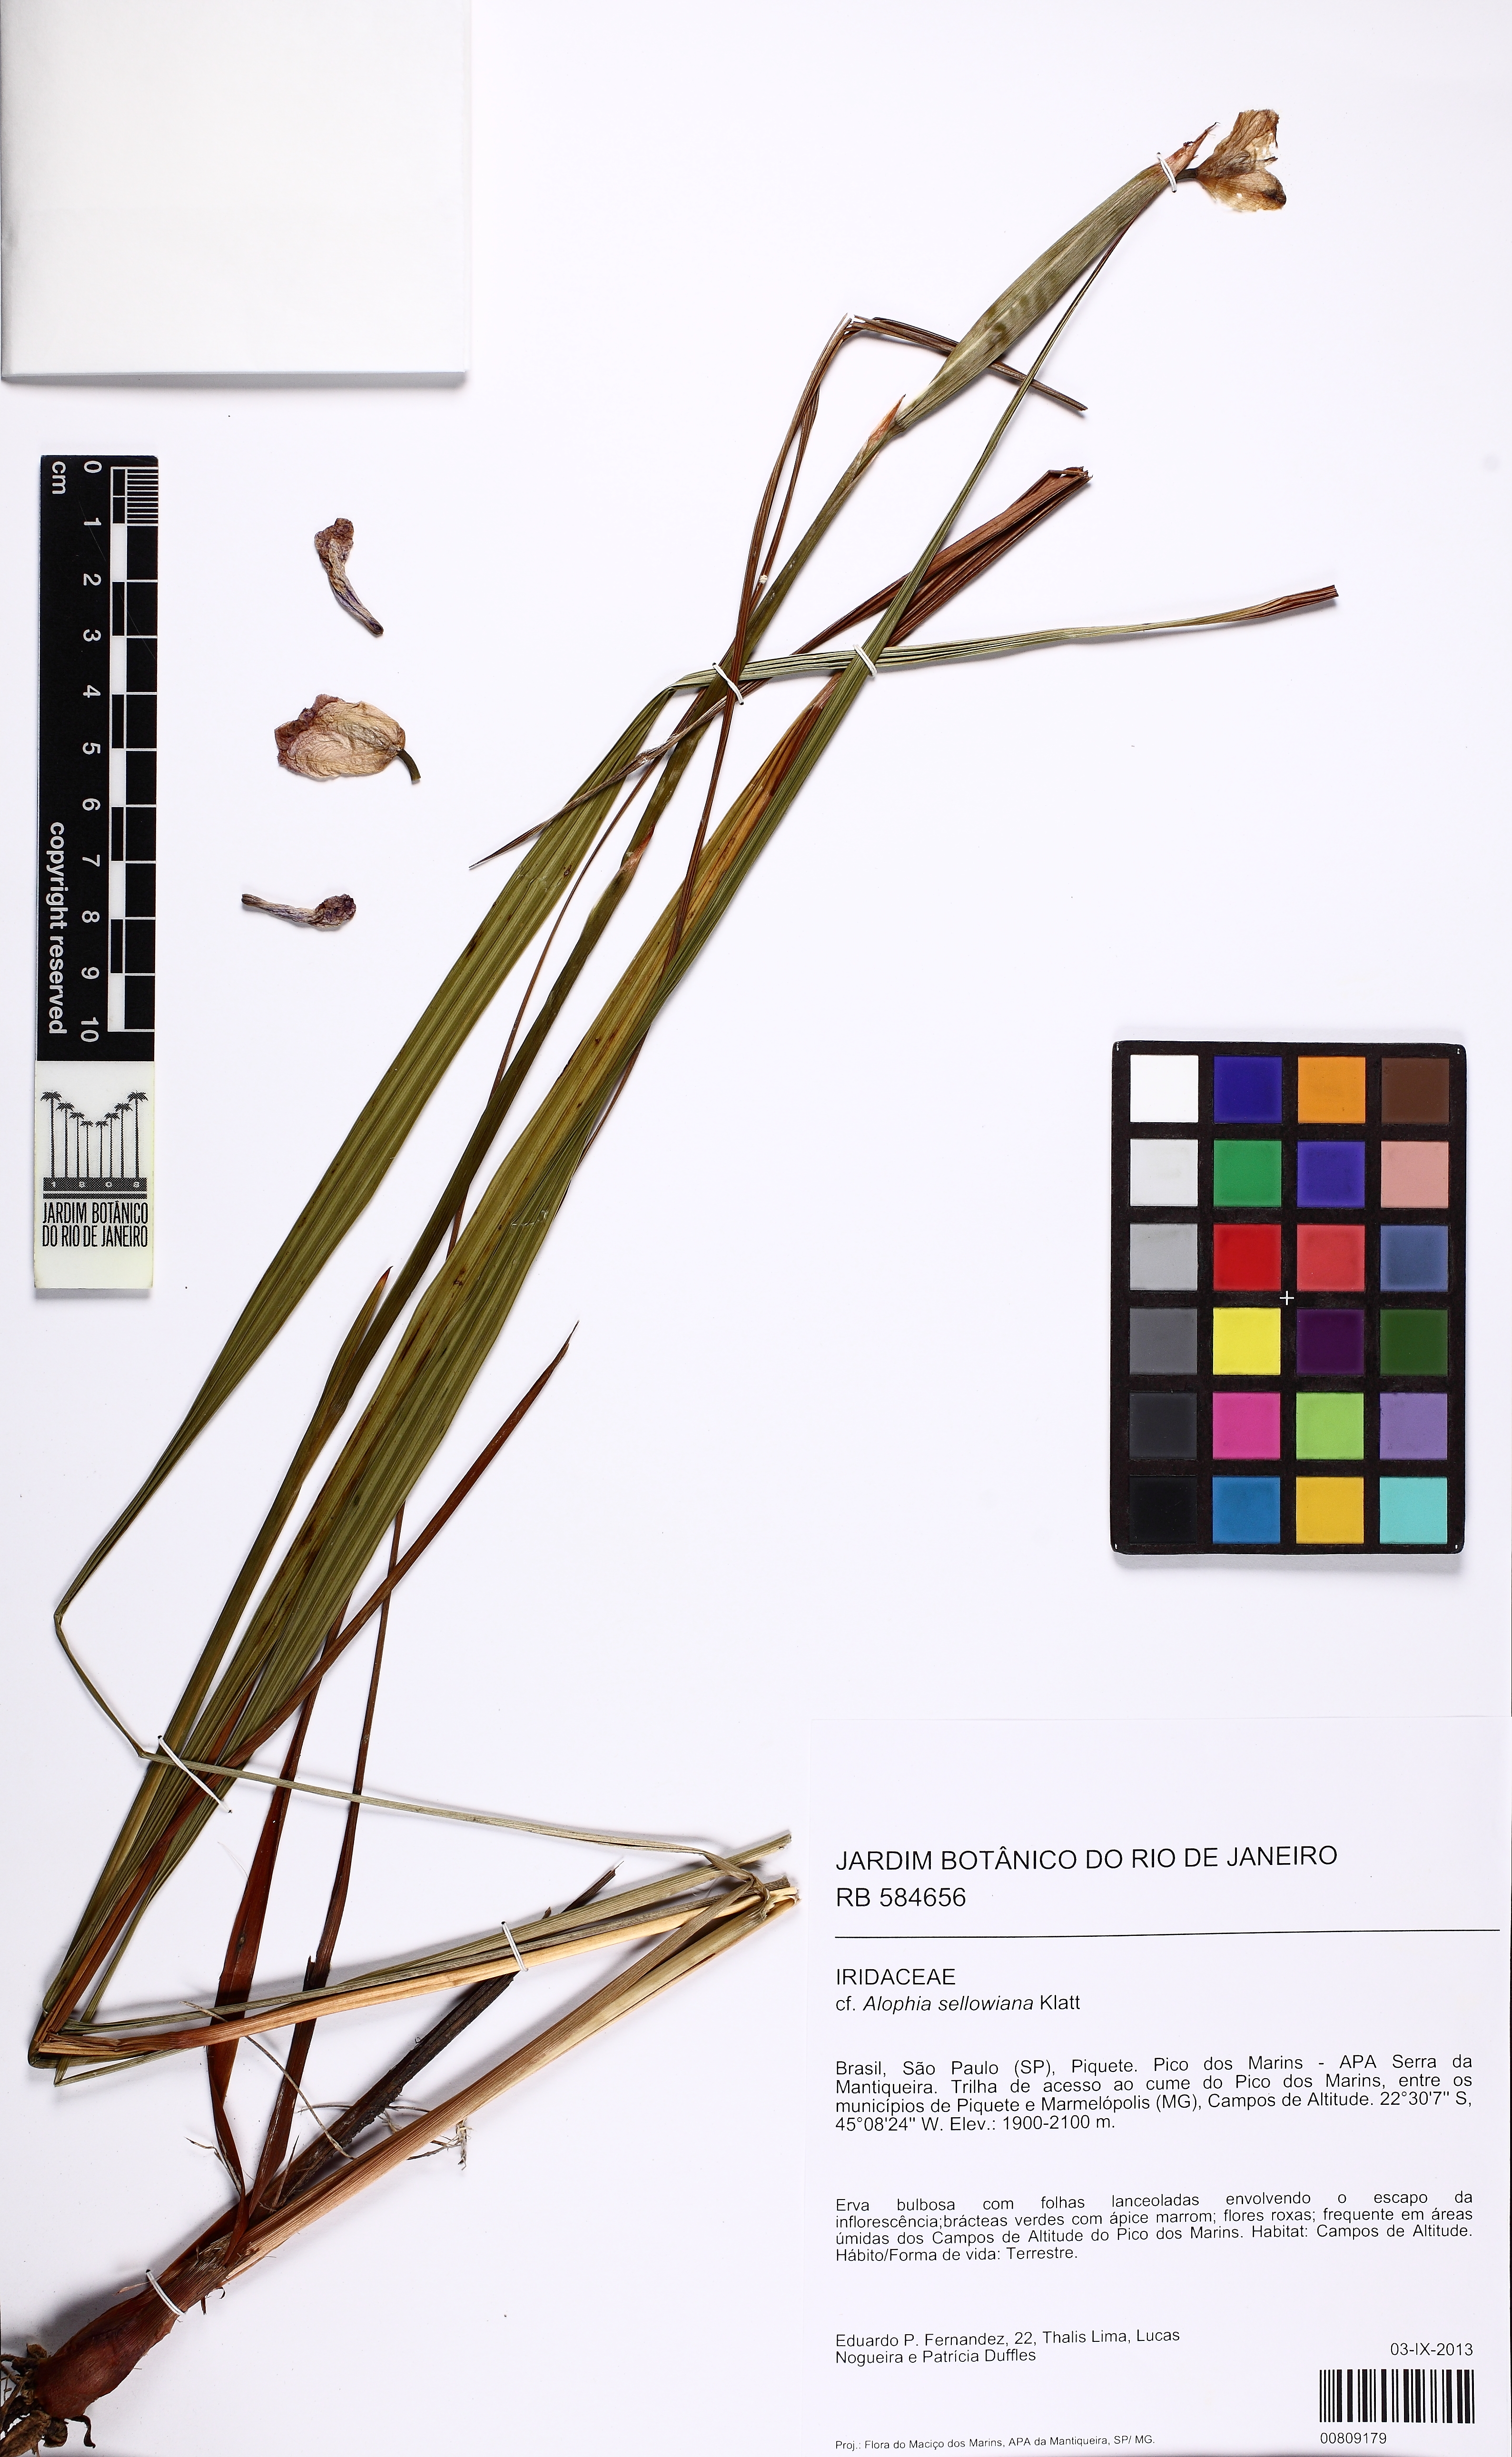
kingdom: Plantae
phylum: Tracheophyta
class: Liliopsida
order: Asparagales
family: Iridaceae
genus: Gelasine
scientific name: Gelasine coerulea
